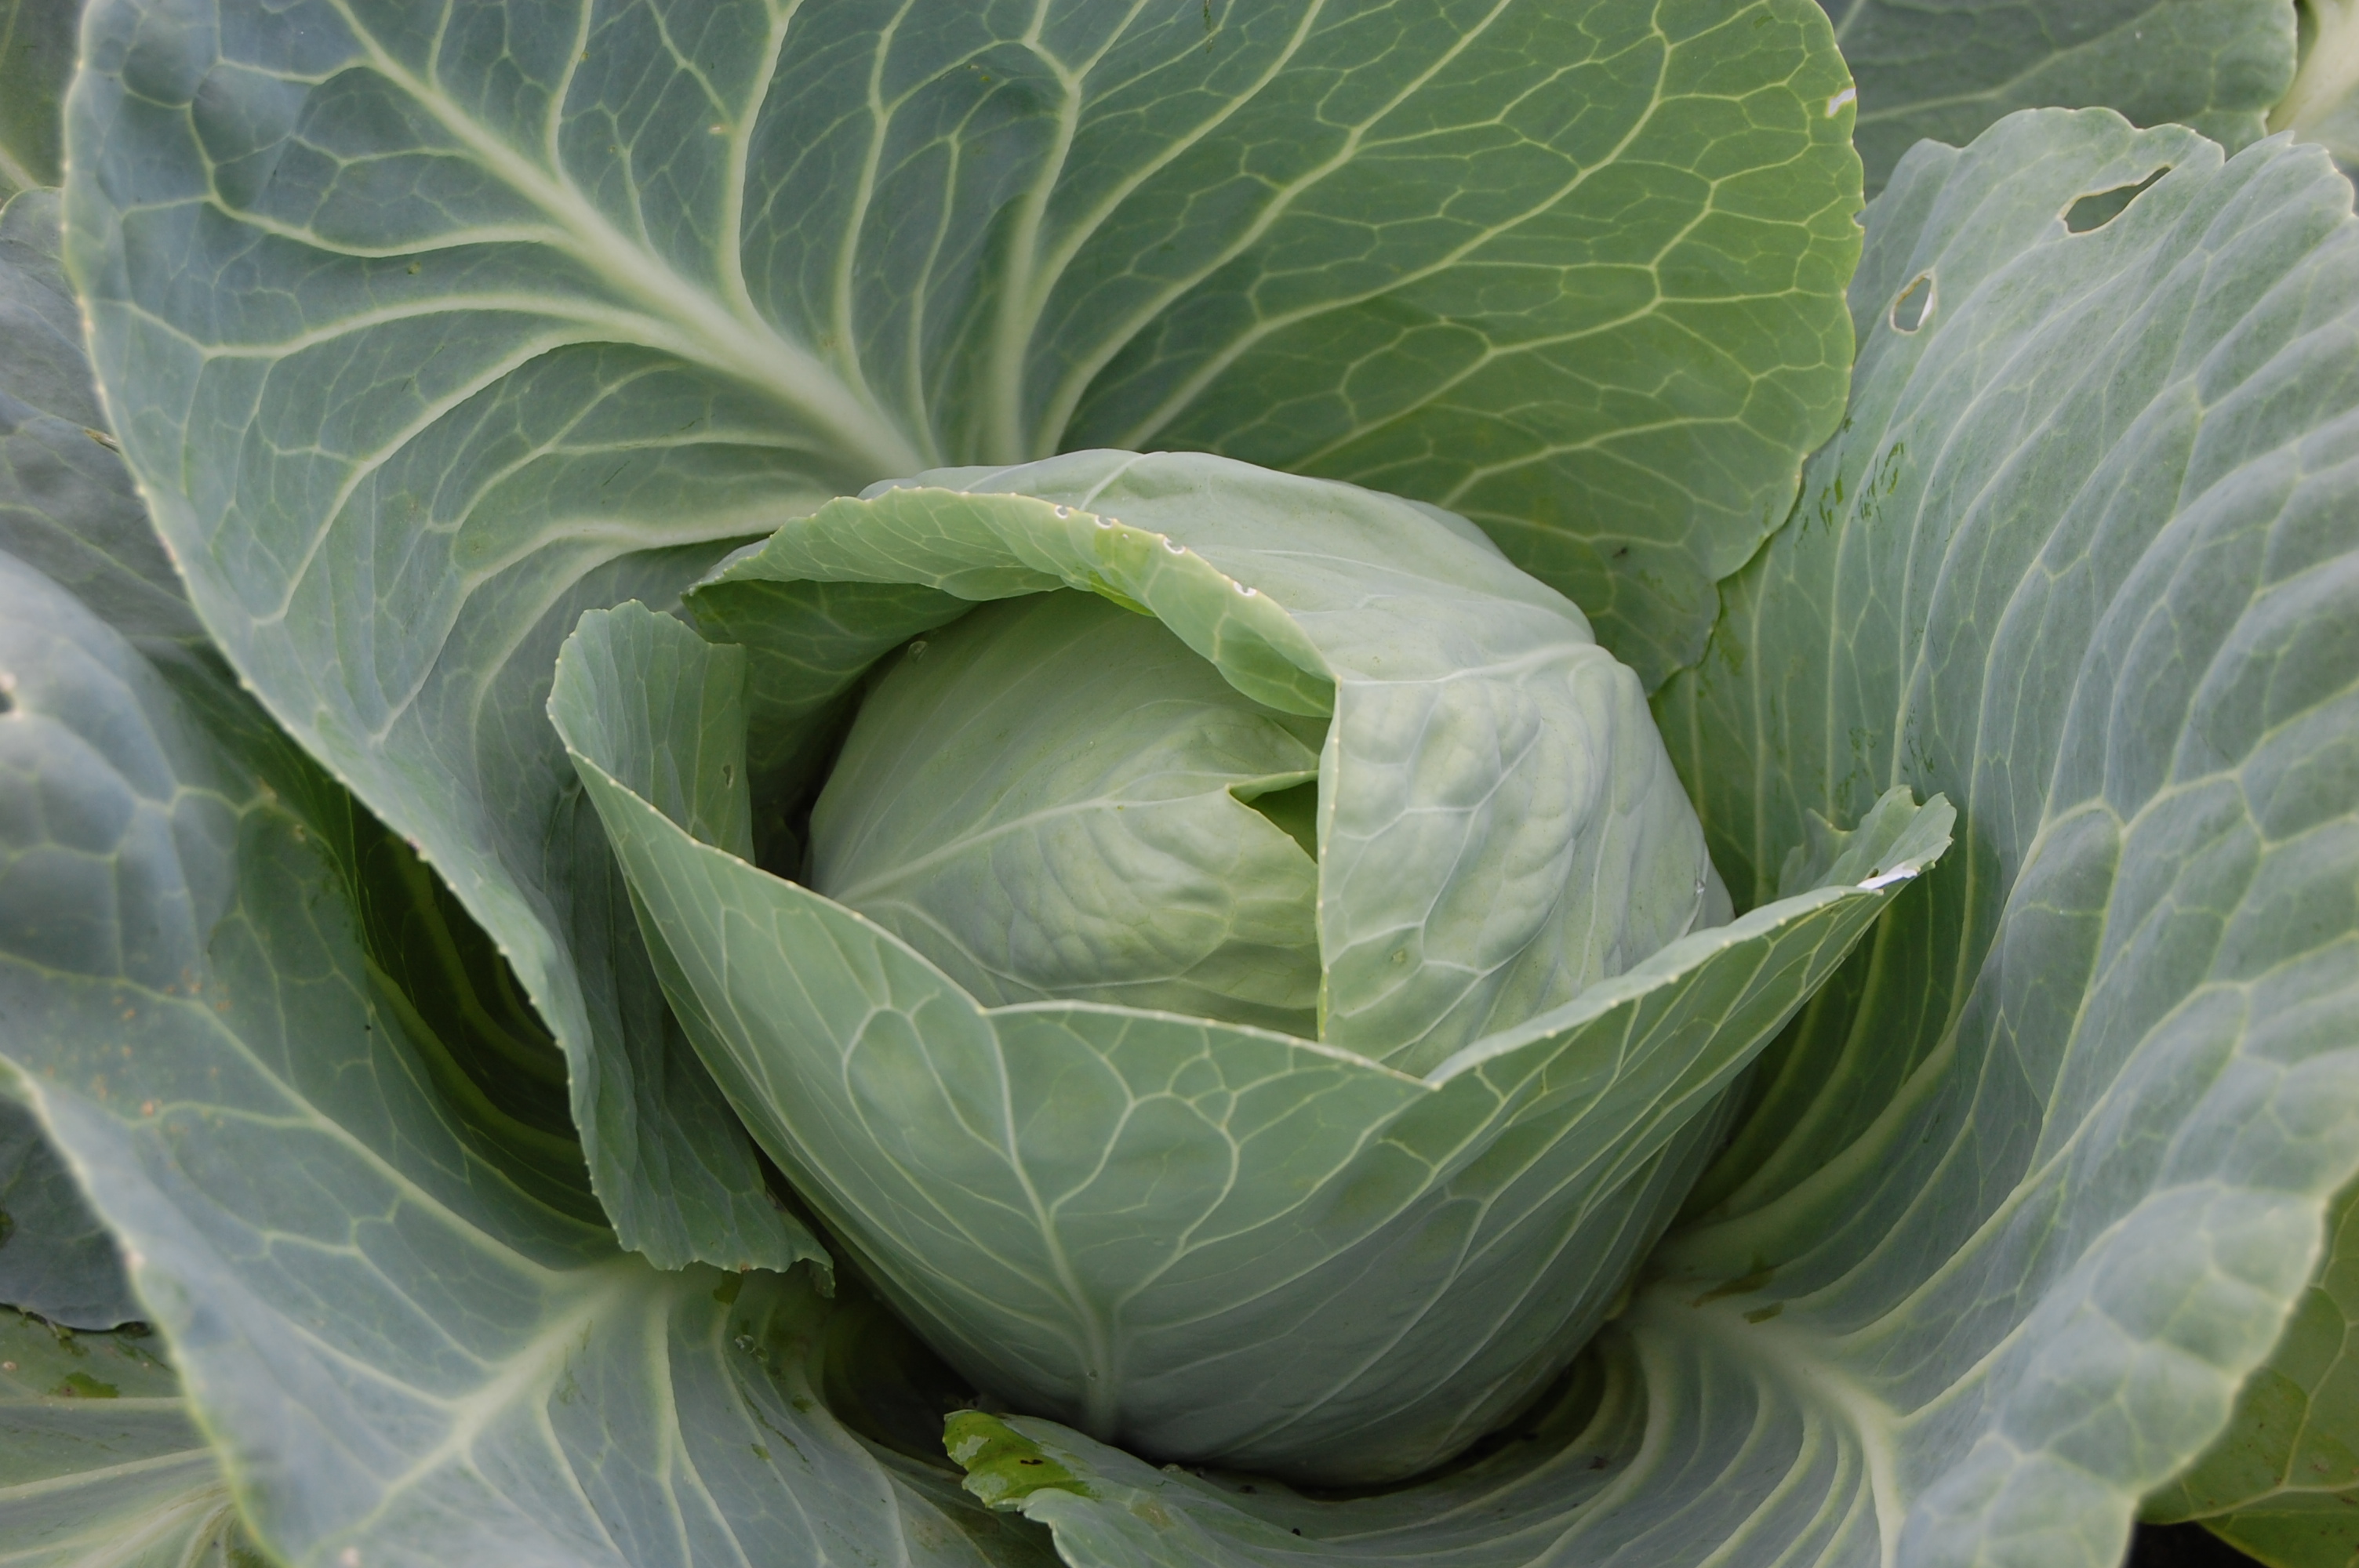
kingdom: Plantae
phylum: Tracheophyta
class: Magnoliopsida
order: Brassicales
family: Brassicaceae
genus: Brassica
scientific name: Brassica oleracea
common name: Cabbage
